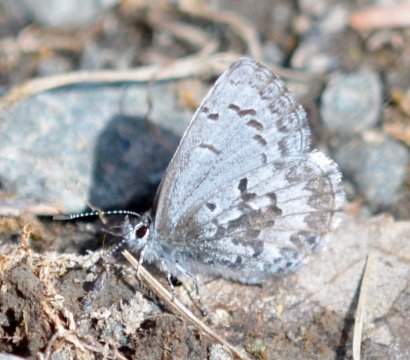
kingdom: Animalia
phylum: Arthropoda
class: Insecta
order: Lepidoptera
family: Lycaenidae
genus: Celastrina
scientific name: Celastrina lucia
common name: Northern Spring Azure
